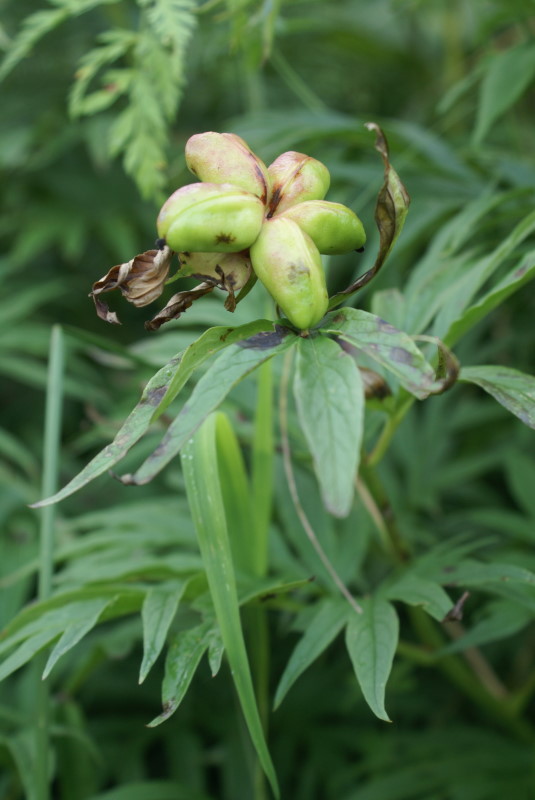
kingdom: Plantae
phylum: Tracheophyta
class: Magnoliopsida
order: Saxifragales
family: Paeoniaceae
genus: Paeonia
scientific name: Paeonia anomala
